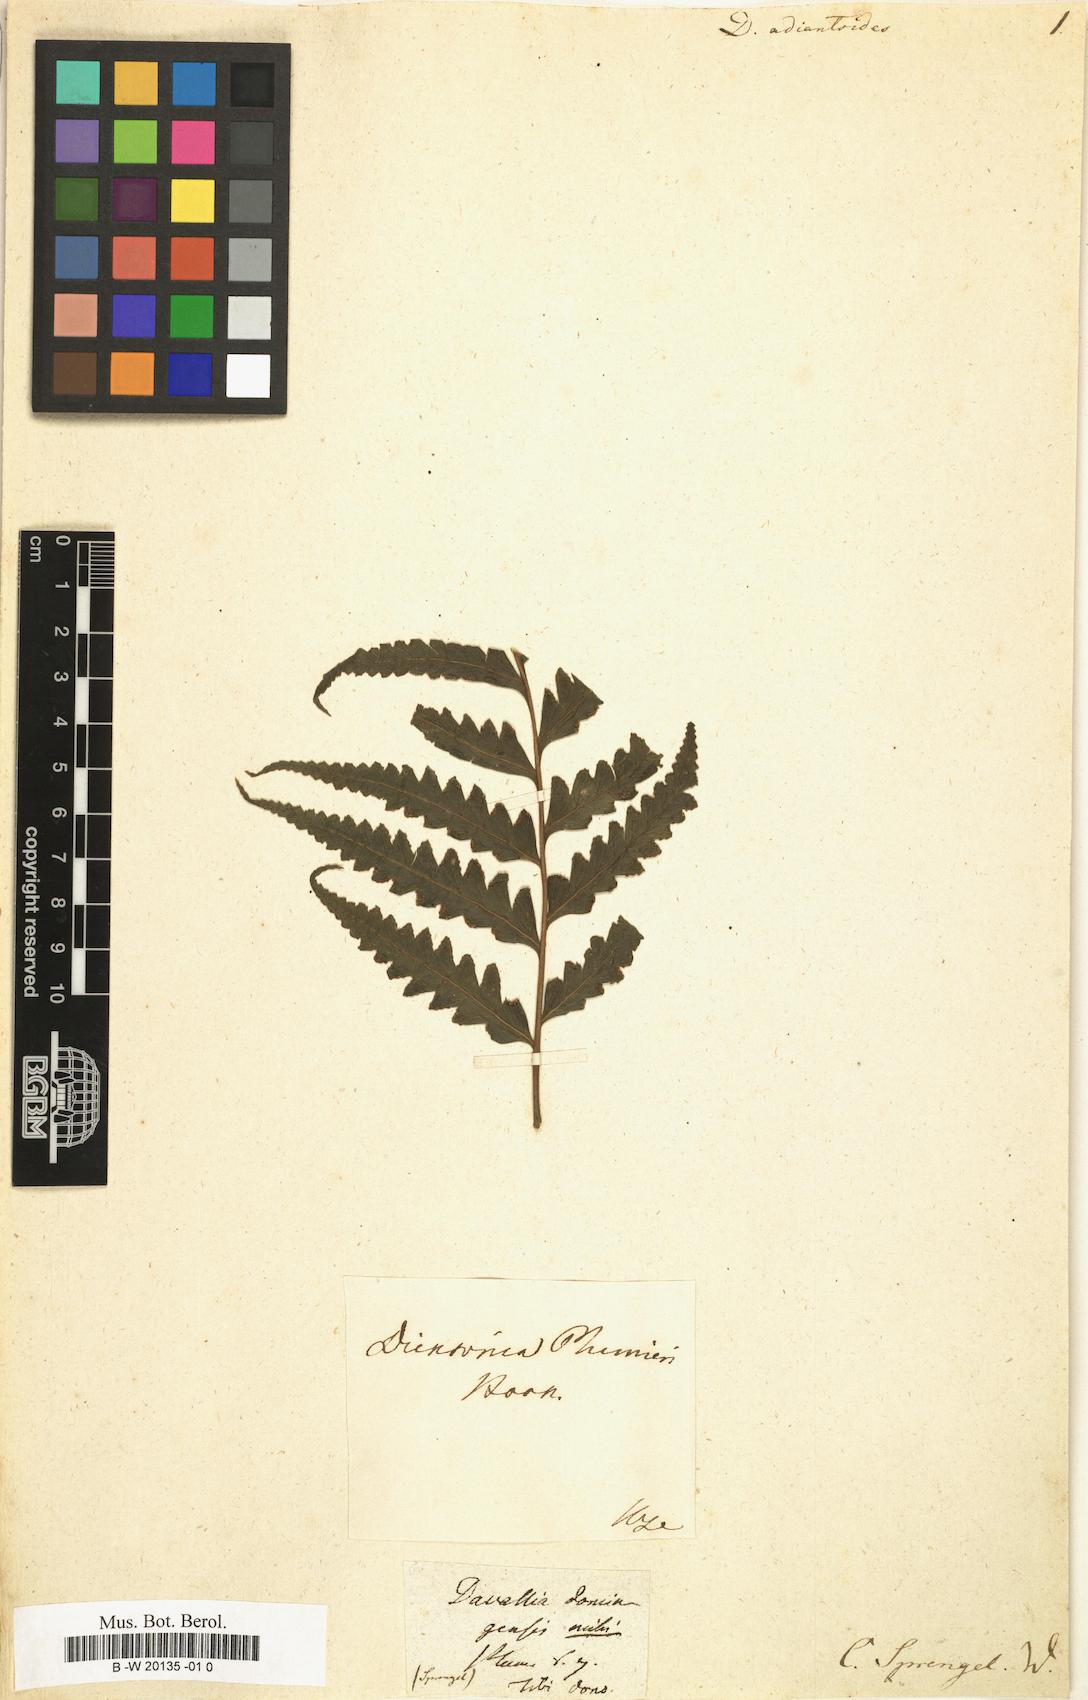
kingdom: Plantae
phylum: Tracheophyta
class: Polypodiopsida
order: Polypodiales
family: Saccolomataceae
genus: Saccoloma
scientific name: Saccoloma domingense
